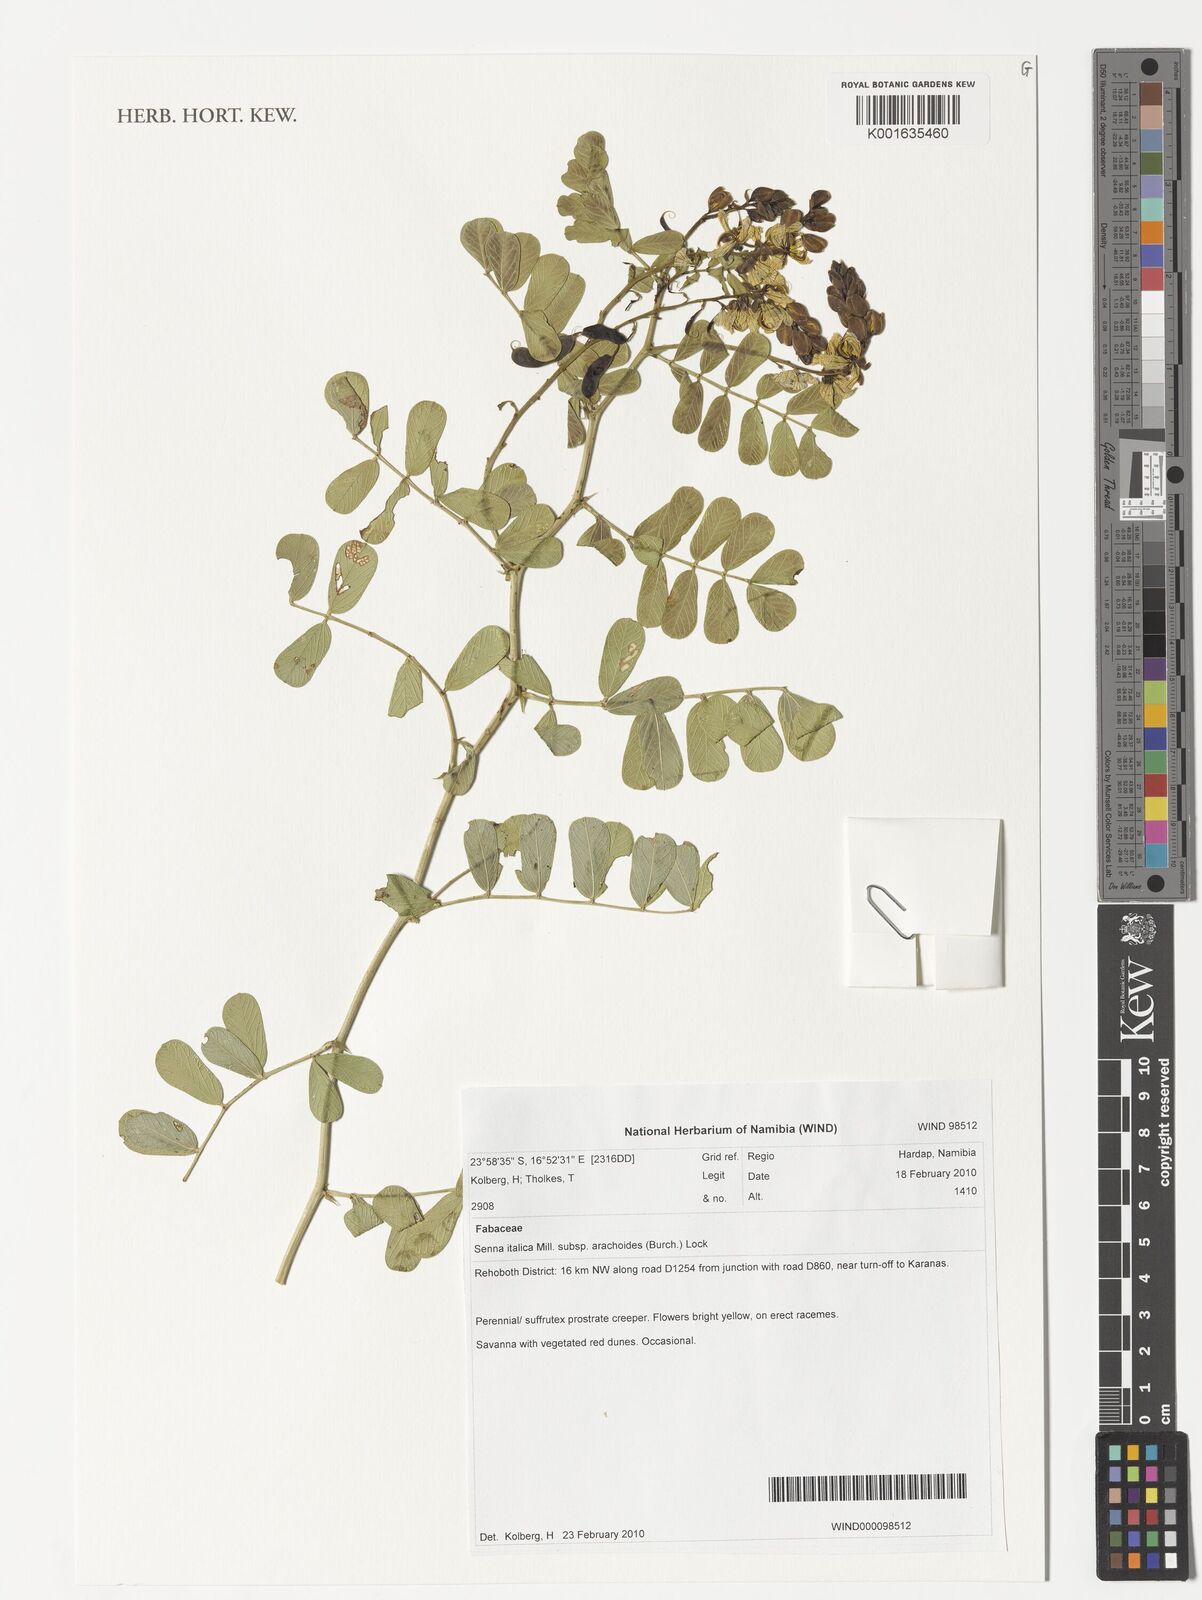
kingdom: Plantae
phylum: Tracheophyta
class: Magnoliopsida
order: Fabales
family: Fabaceae
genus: Senna
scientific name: Senna italica
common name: Port royal senna
